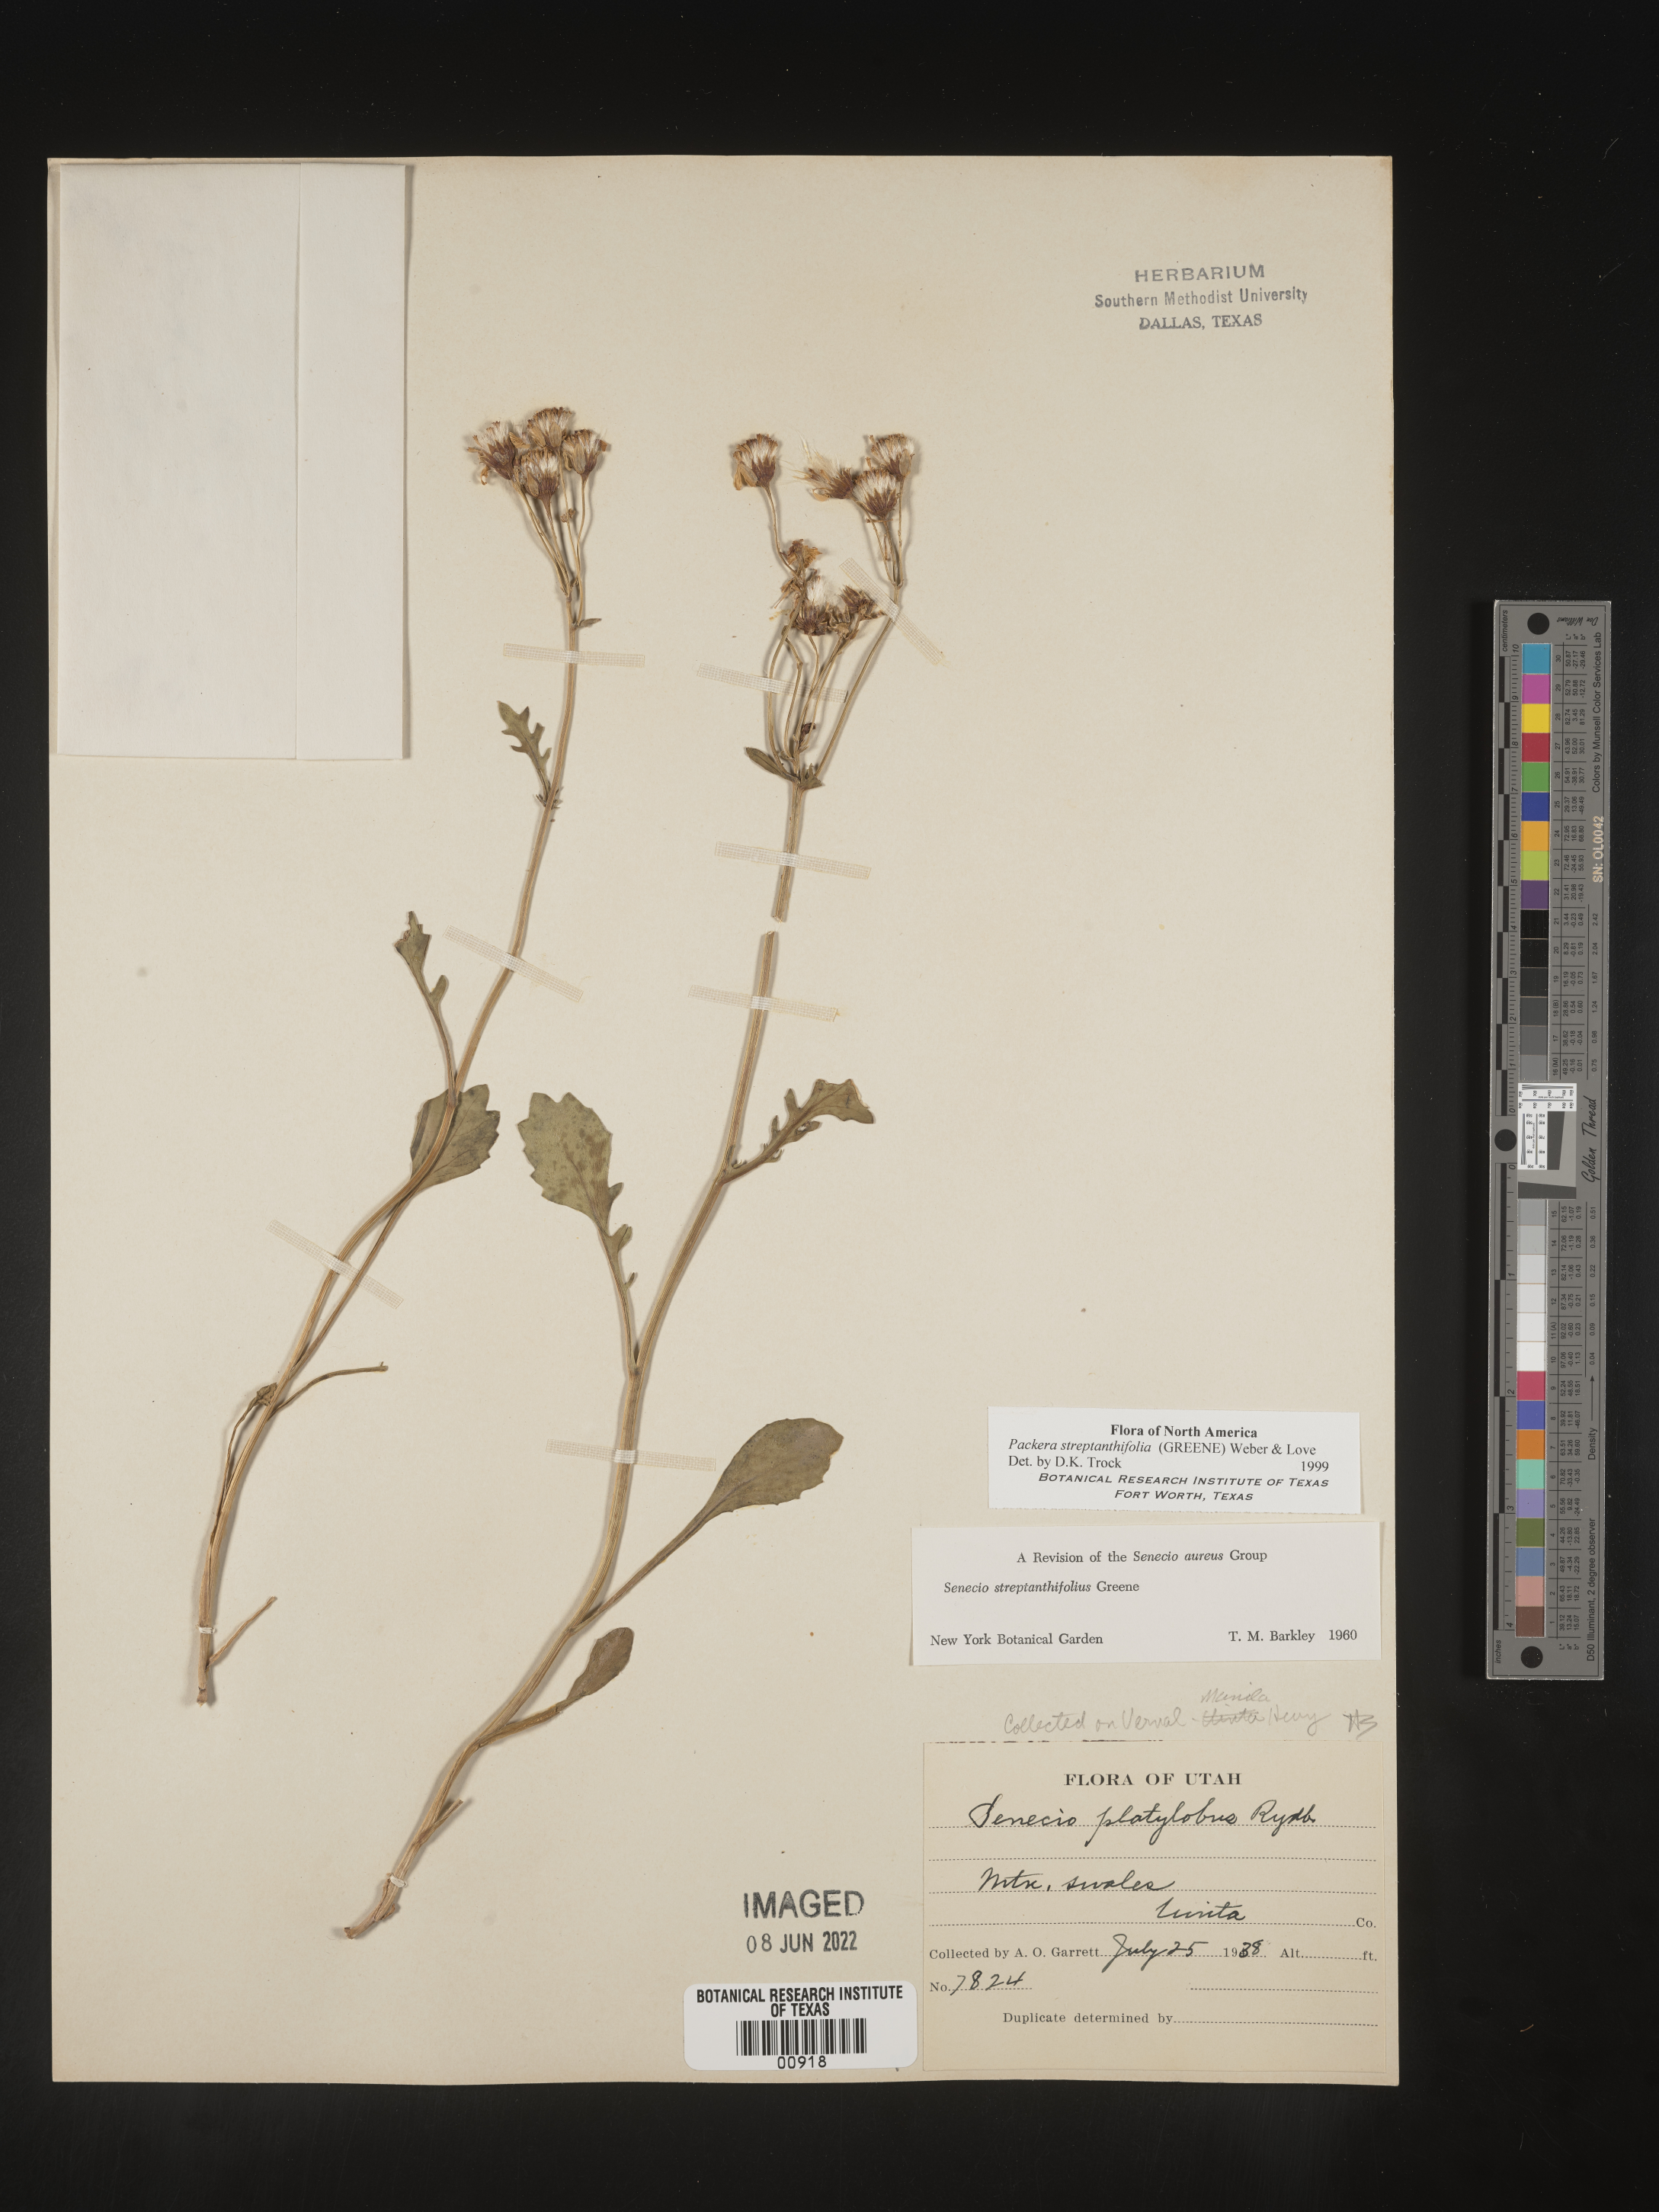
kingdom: Plantae
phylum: Tracheophyta
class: Magnoliopsida
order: Asterales
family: Asteraceae
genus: Packera
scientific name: Packera streptanthifolia
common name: Rocky mountain butterweed
